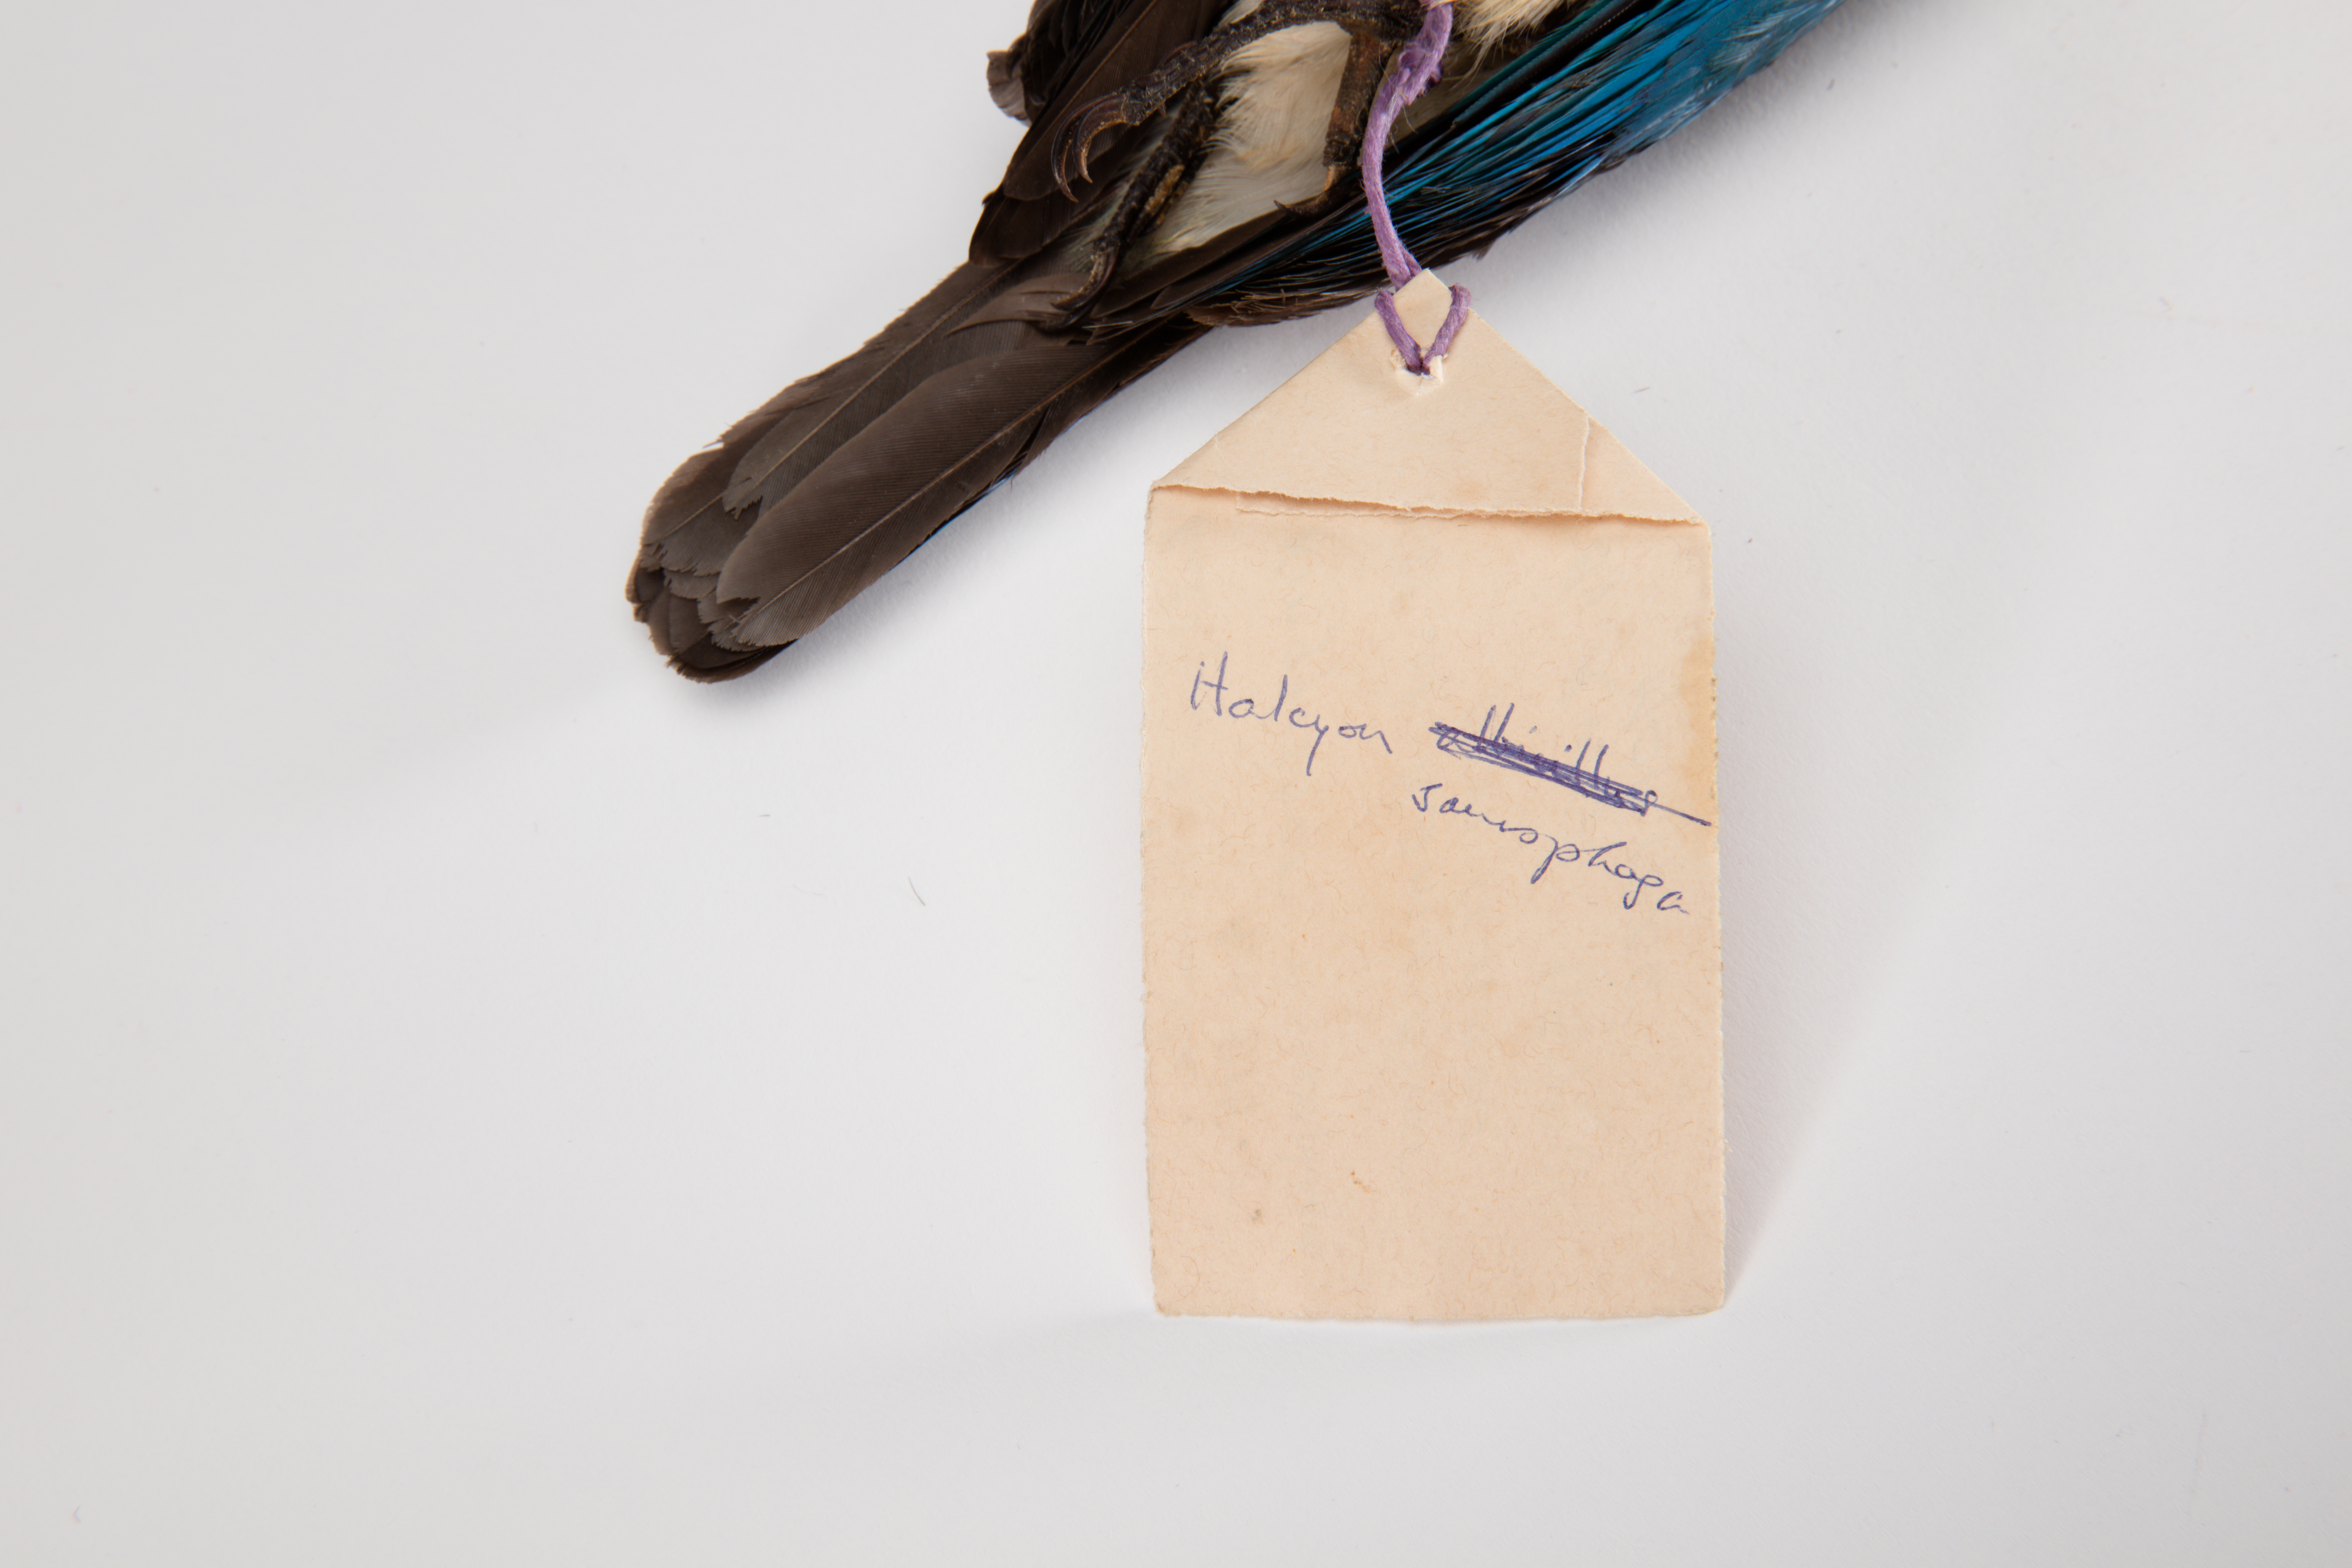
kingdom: Animalia
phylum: Chordata
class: Aves
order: Coraciiformes
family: Alcedinidae
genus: Todiramphus
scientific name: Todiramphus saurophagus
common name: Beach kingfisher
